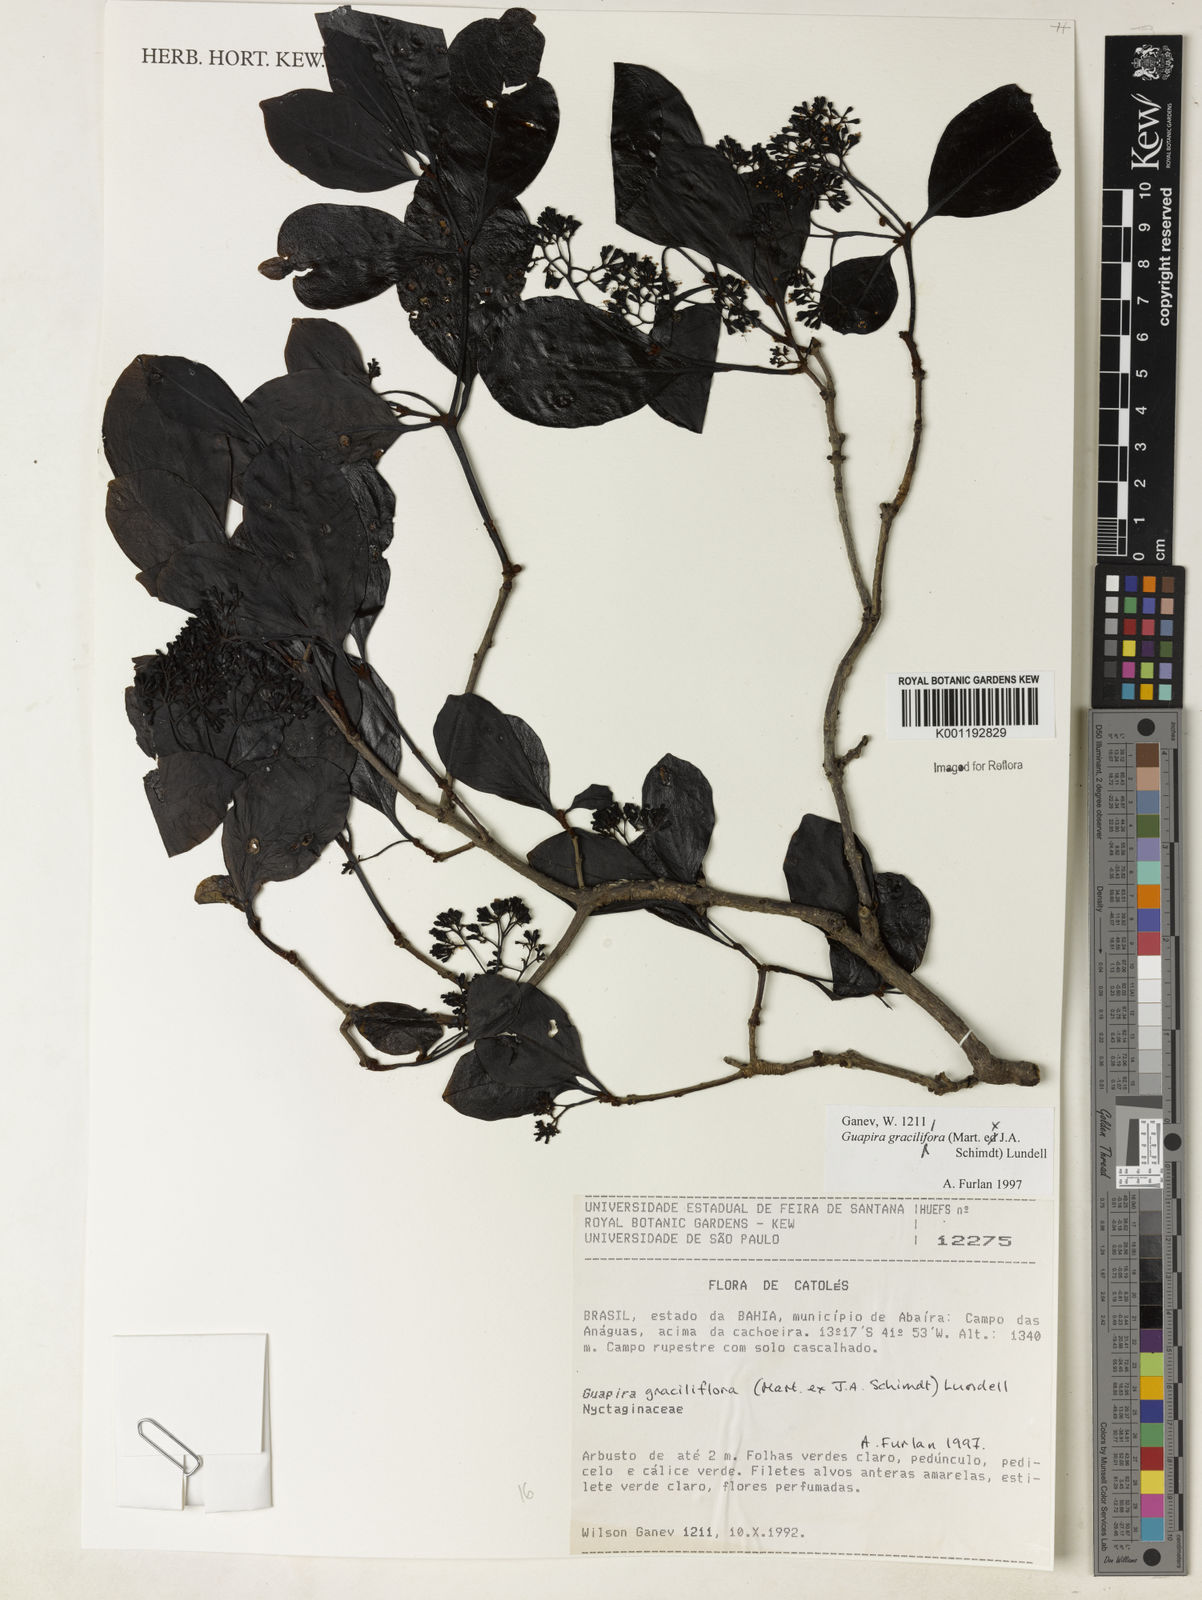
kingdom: Plantae
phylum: Tracheophyta
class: Magnoliopsida
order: Caryophyllales
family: Nyctaginaceae
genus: Guapira
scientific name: Guapira graciliflora
